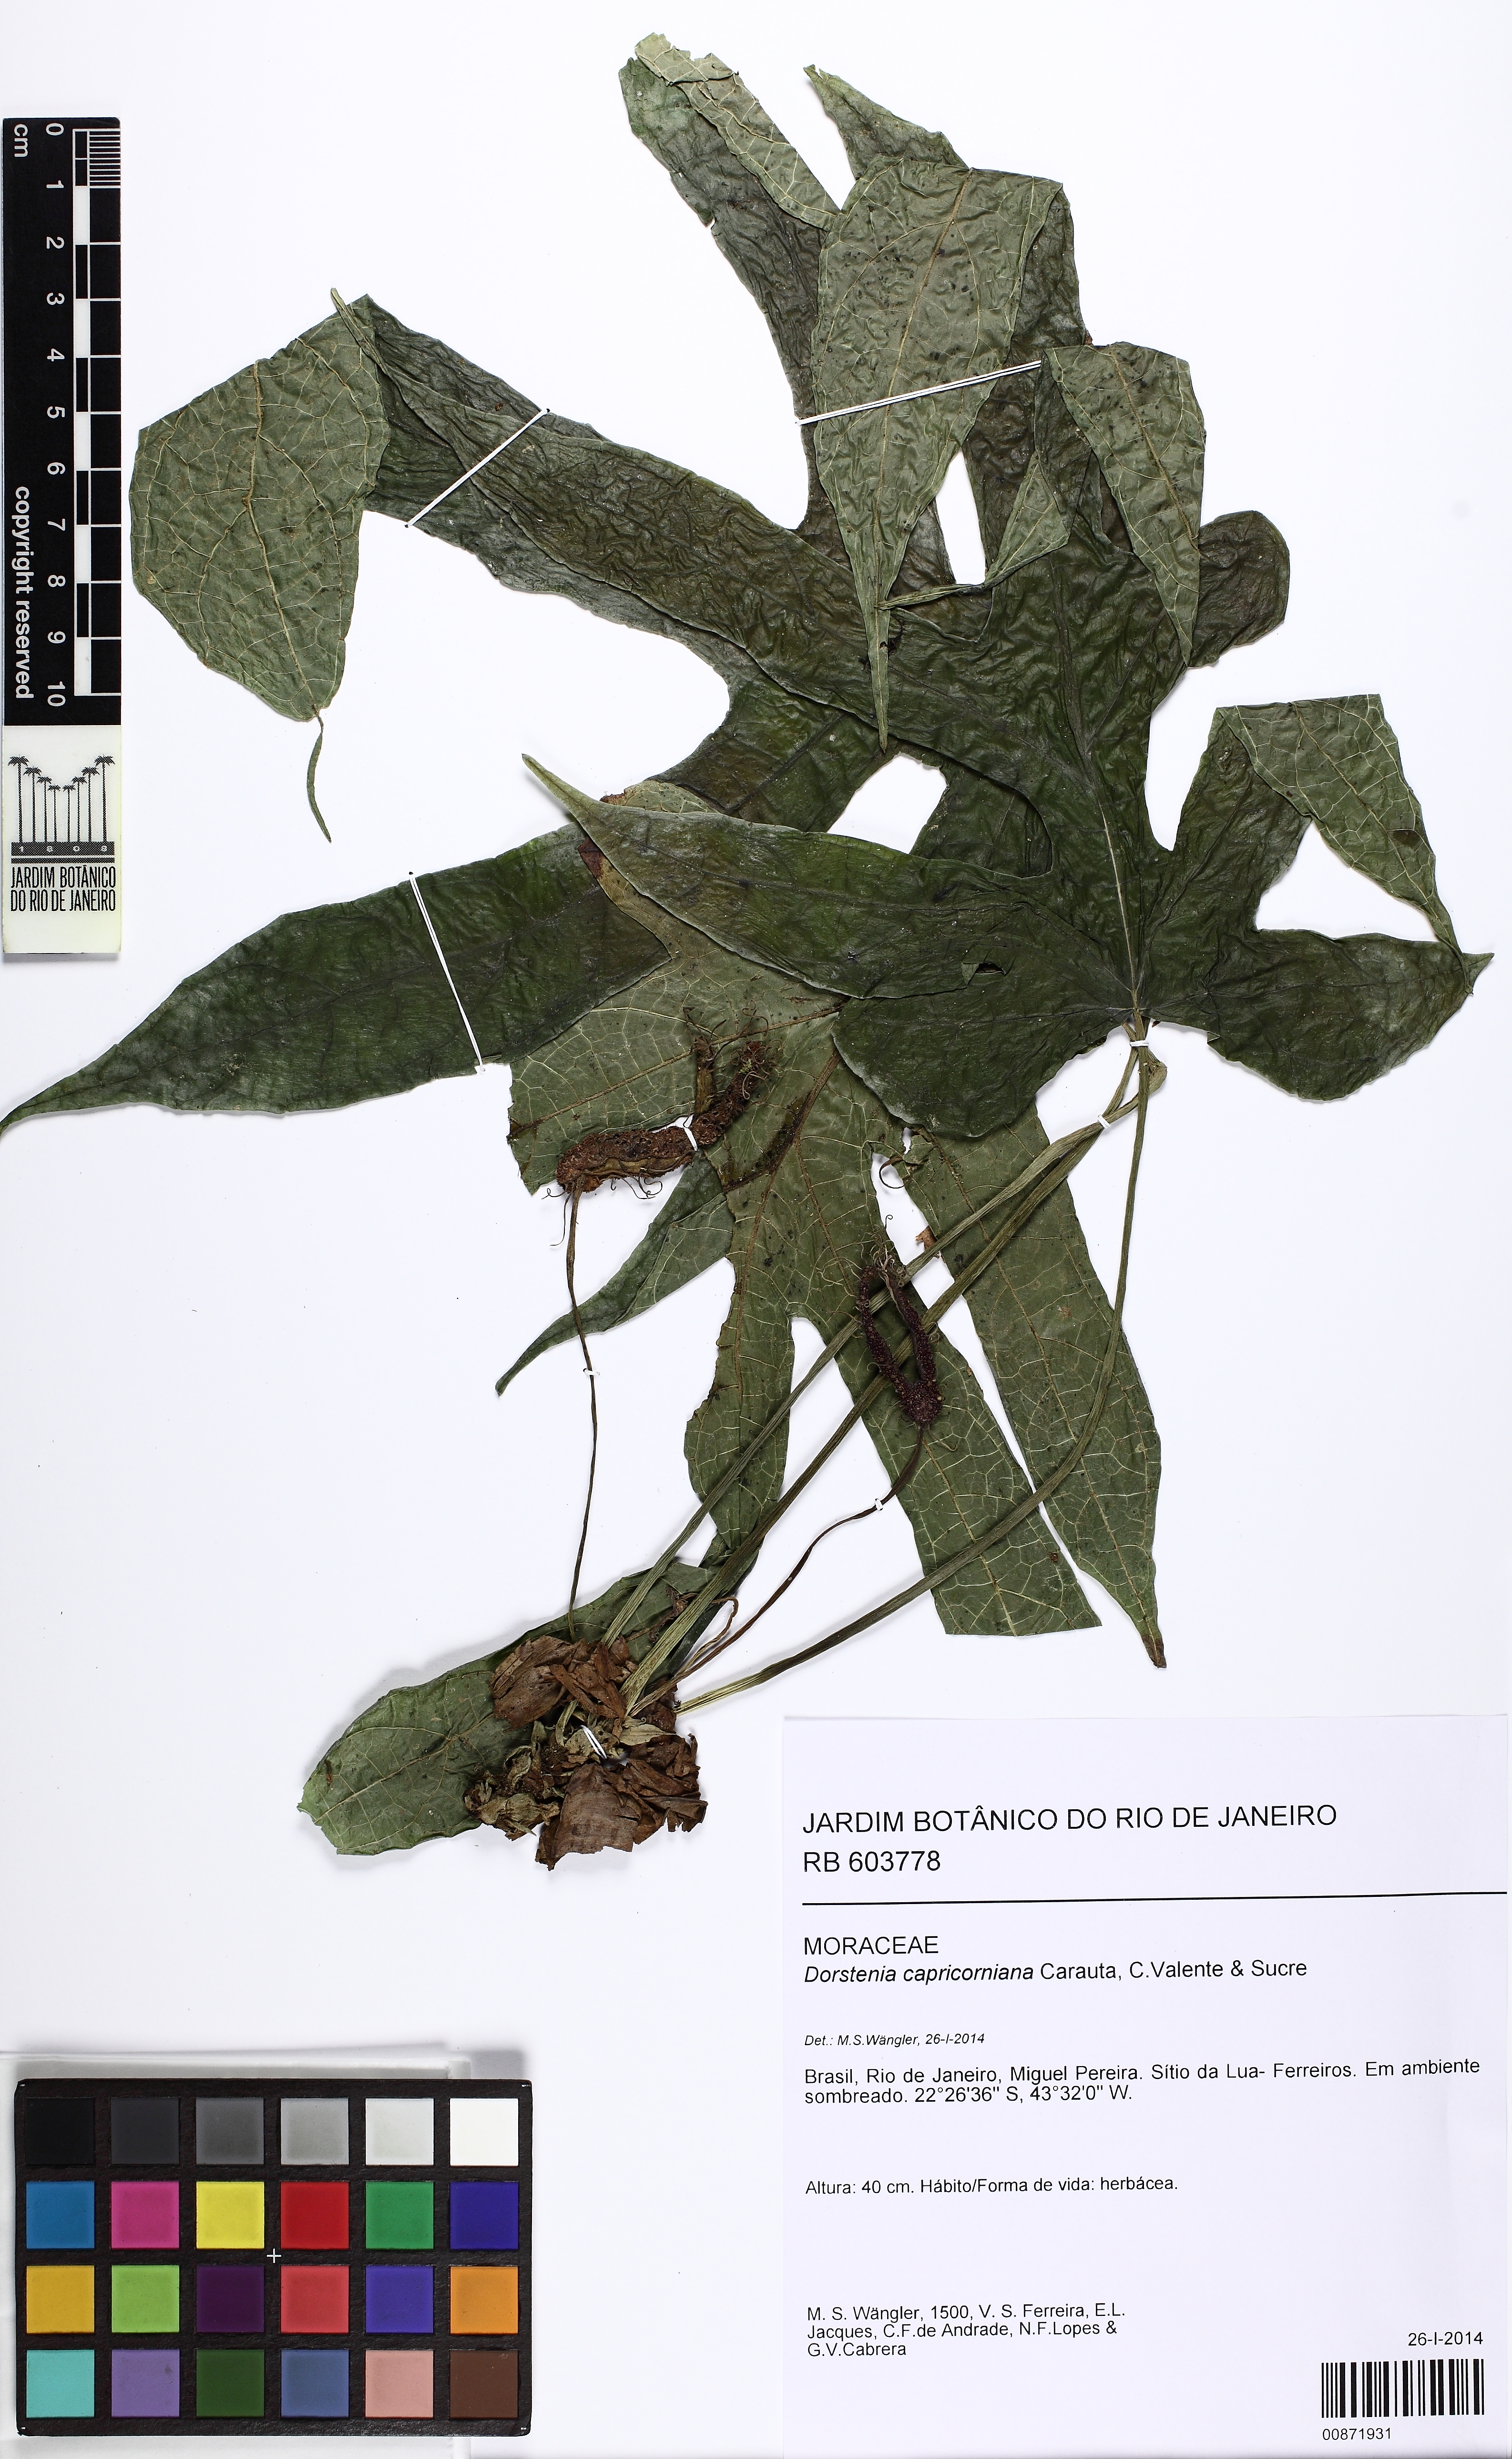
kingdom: Plantae
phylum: Tracheophyta
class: Magnoliopsida
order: Rosales
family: Moraceae
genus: Dorstenia
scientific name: Dorstenia capricorniana
